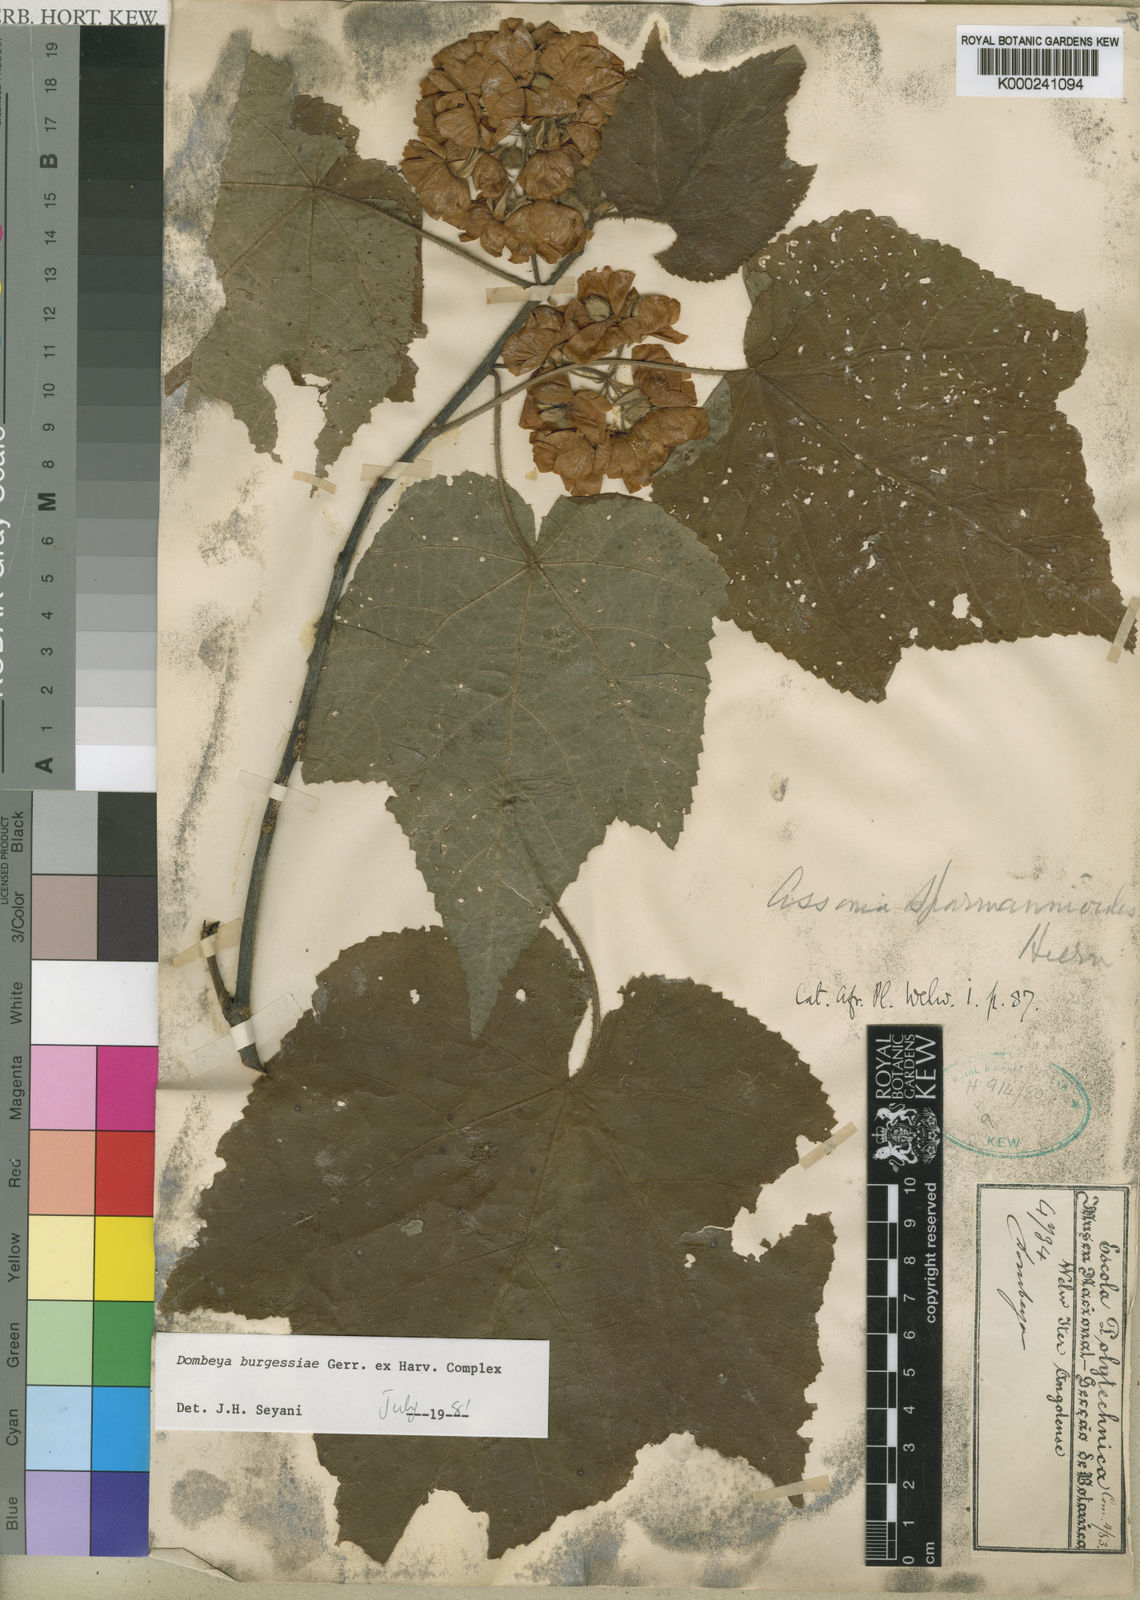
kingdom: Plantae
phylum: Tracheophyta
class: Magnoliopsida
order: Malvales
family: Malvaceae
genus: Dombeya
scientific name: Dombeya burgessiae
